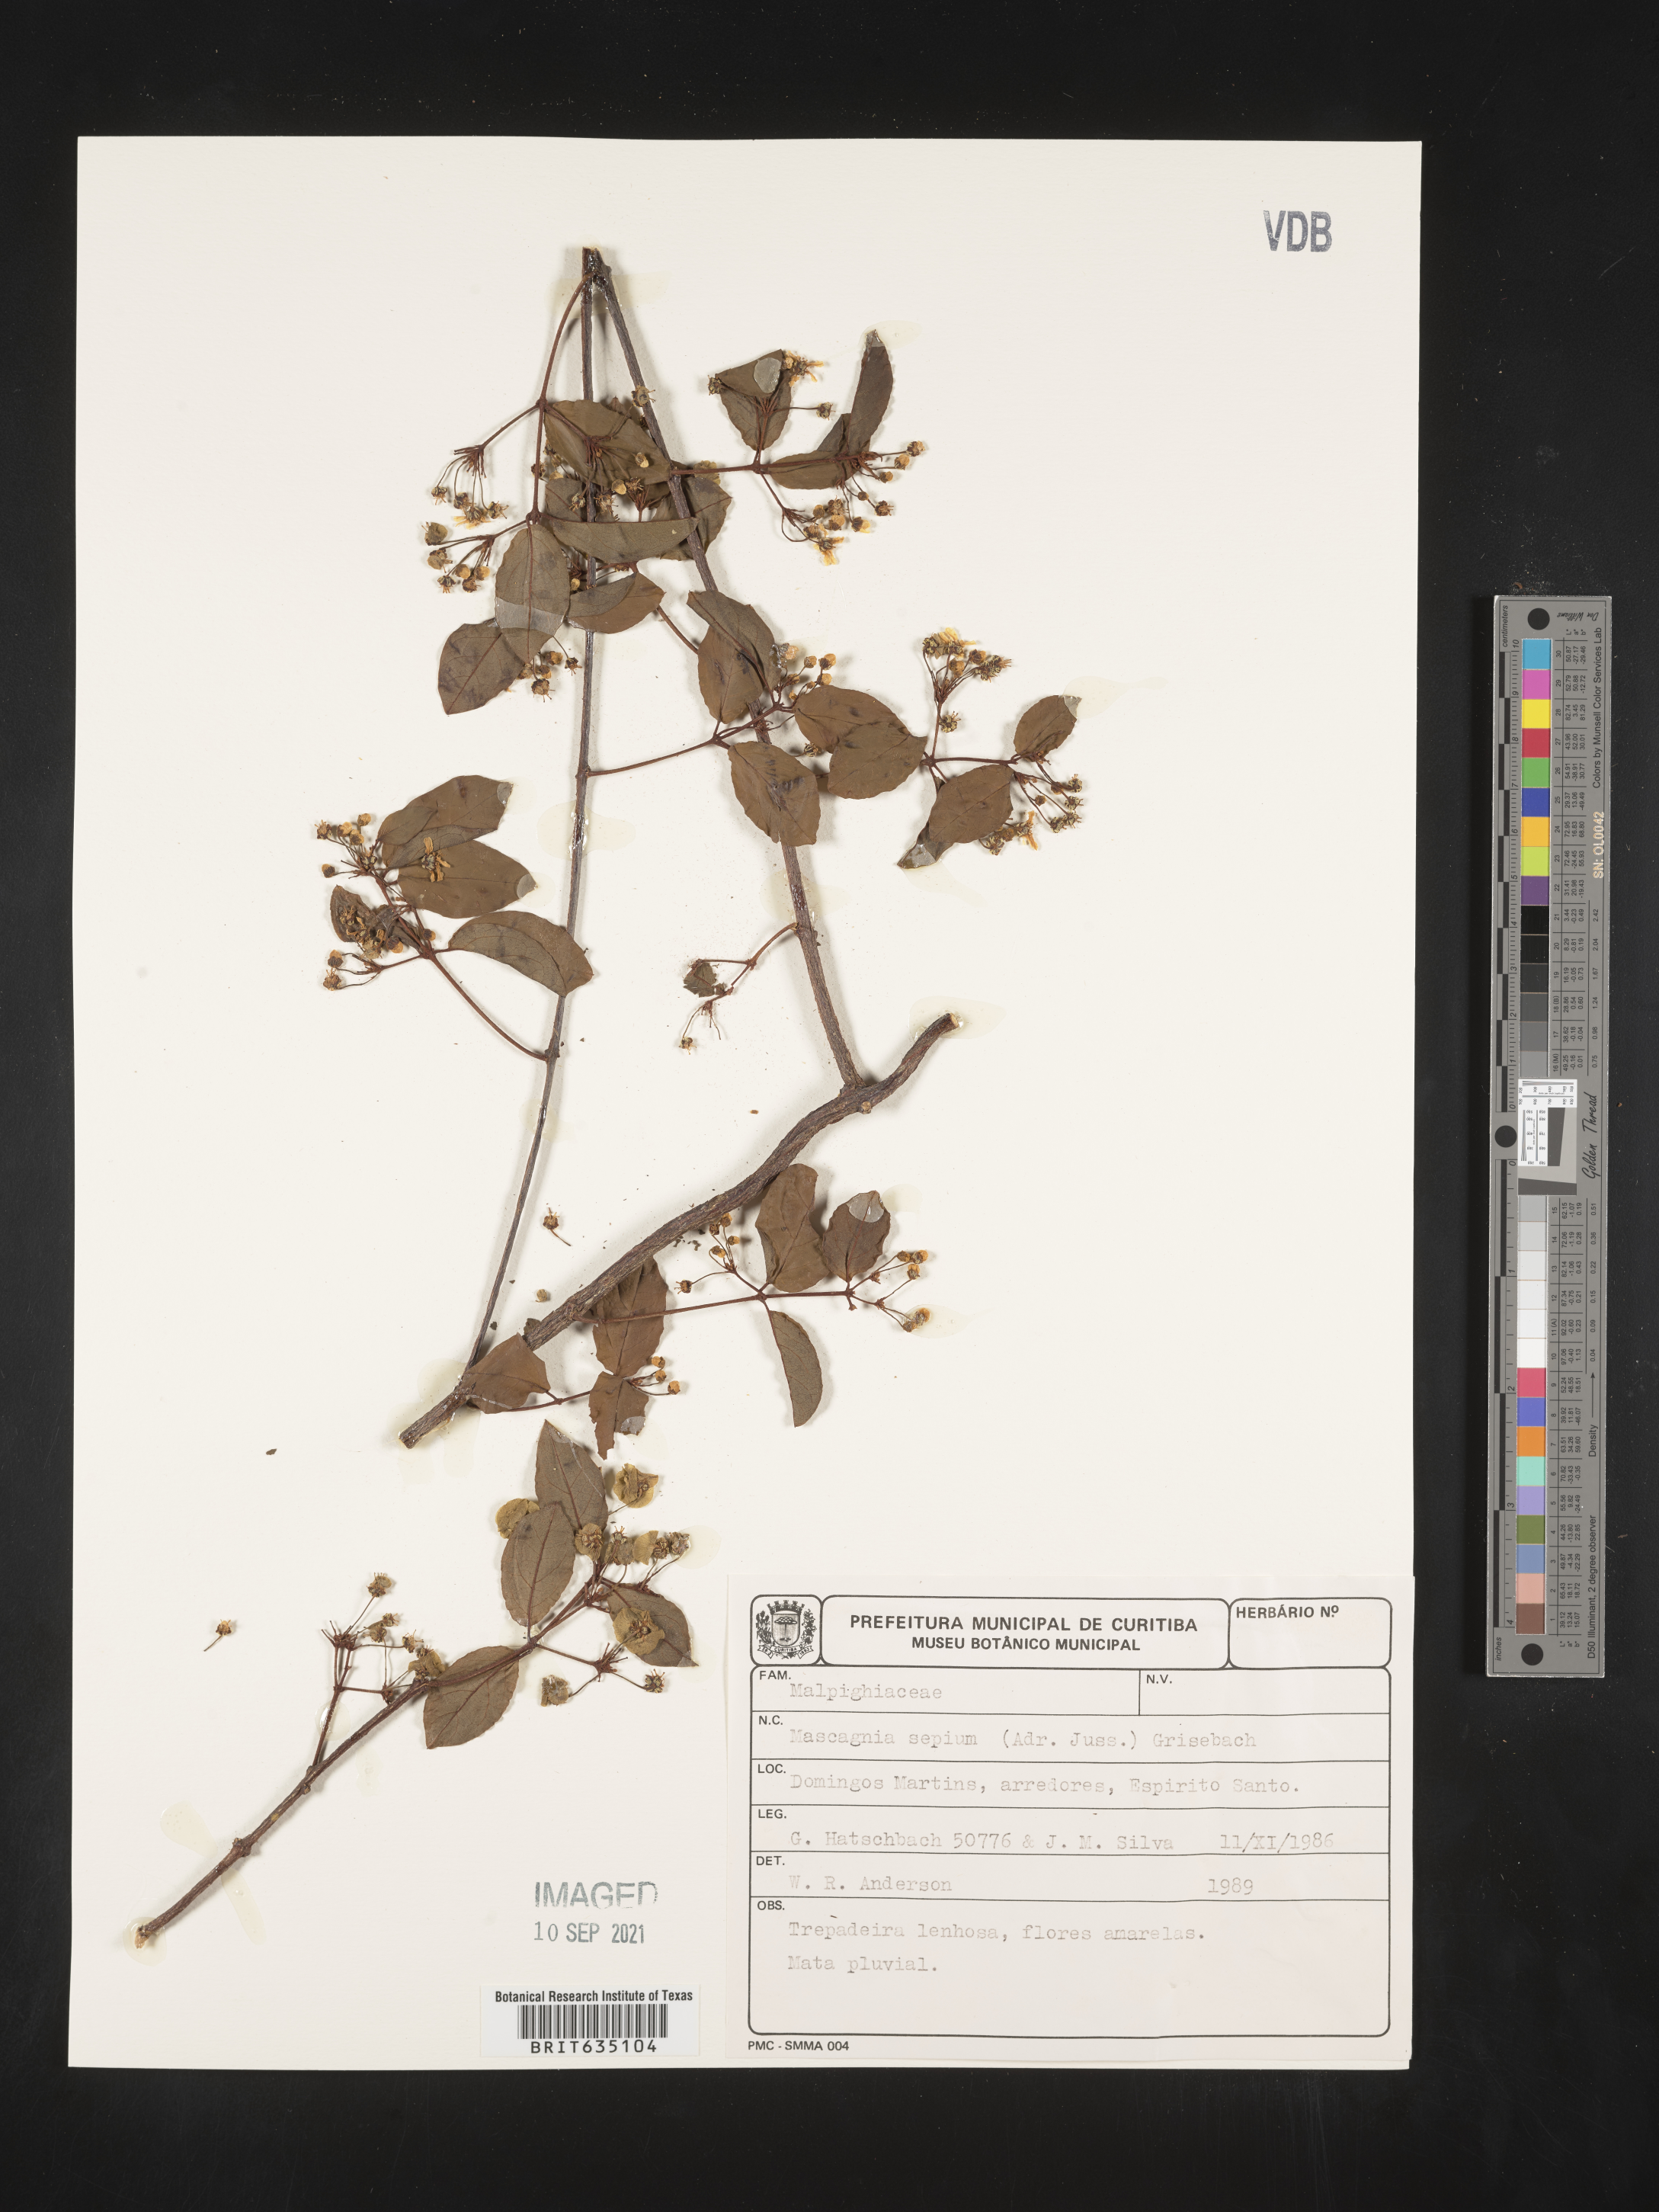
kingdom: Plantae
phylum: Tracheophyta
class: Magnoliopsida
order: Malpighiales
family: Malpighiaceae
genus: Mascagnia
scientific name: Mascagnia
